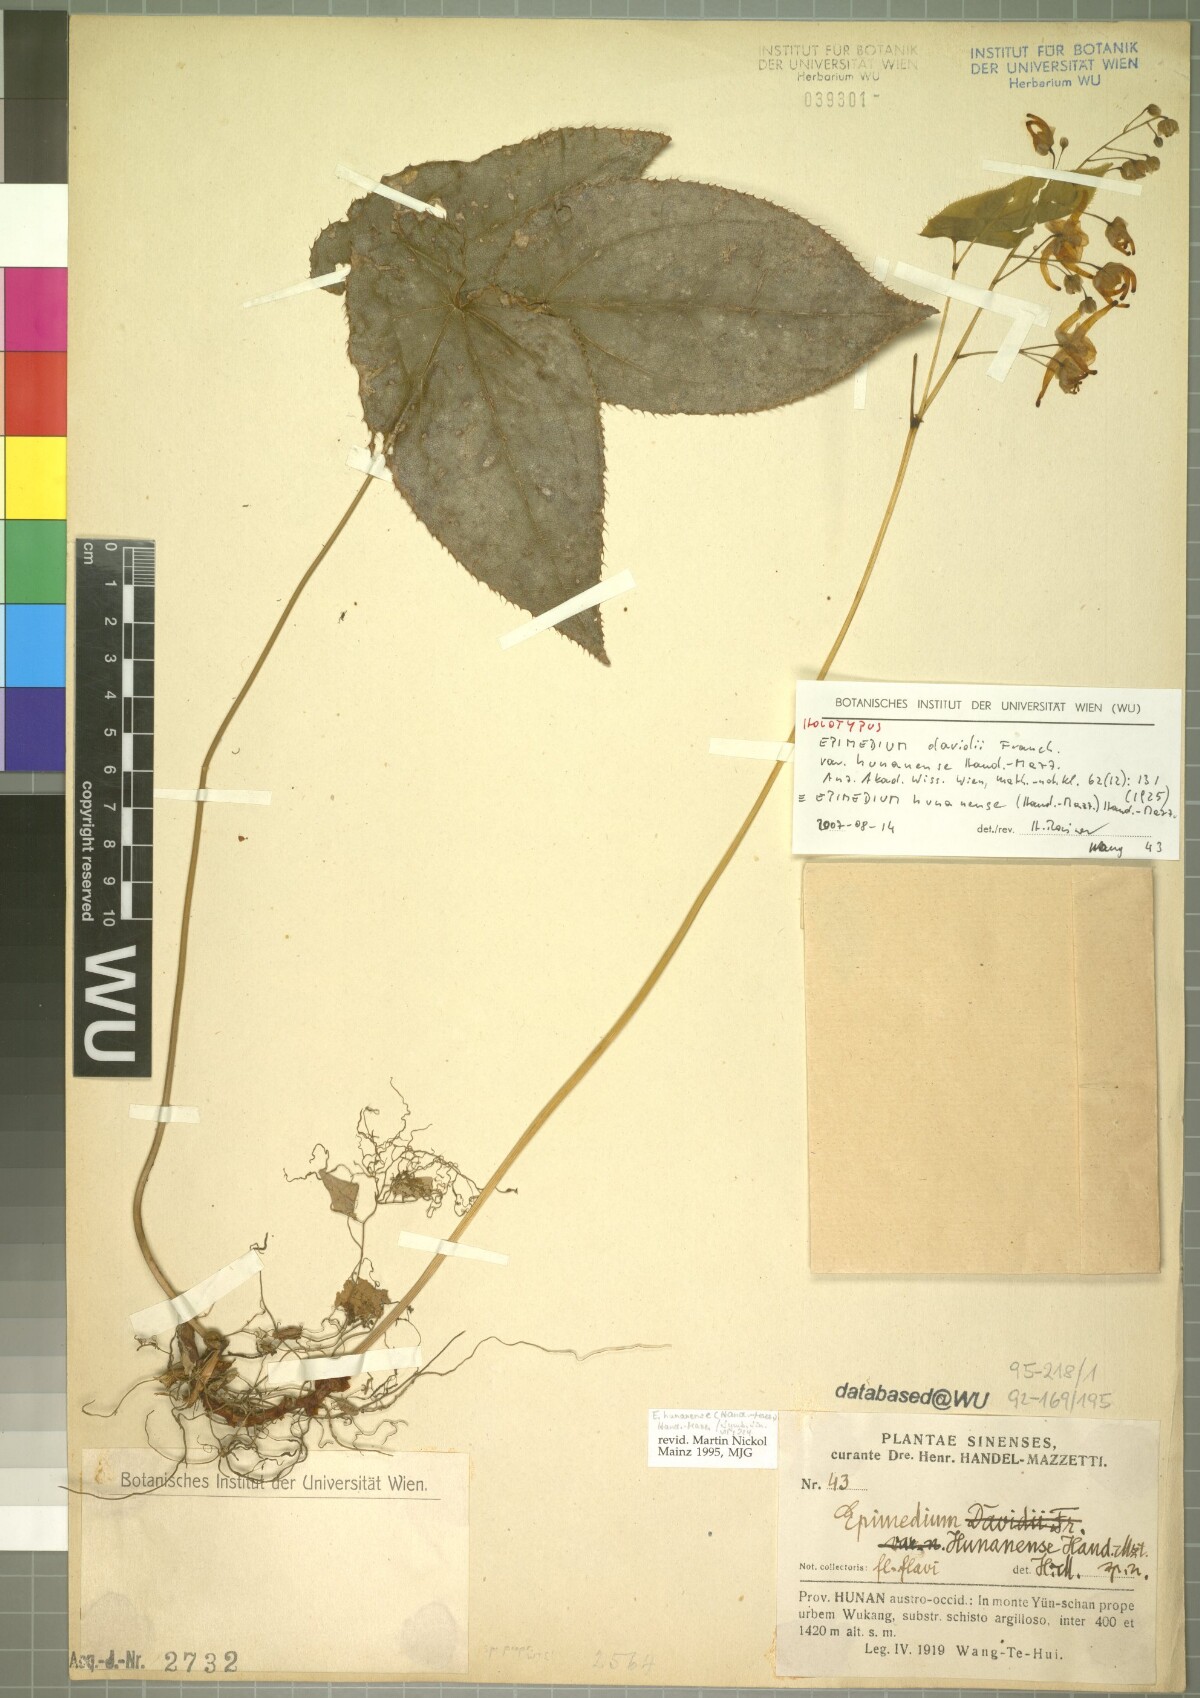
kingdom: Plantae
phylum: Tracheophyta
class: Magnoliopsida
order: Ranunculales
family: Berberidaceae
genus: Epimedium
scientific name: Epimedium hunanense
